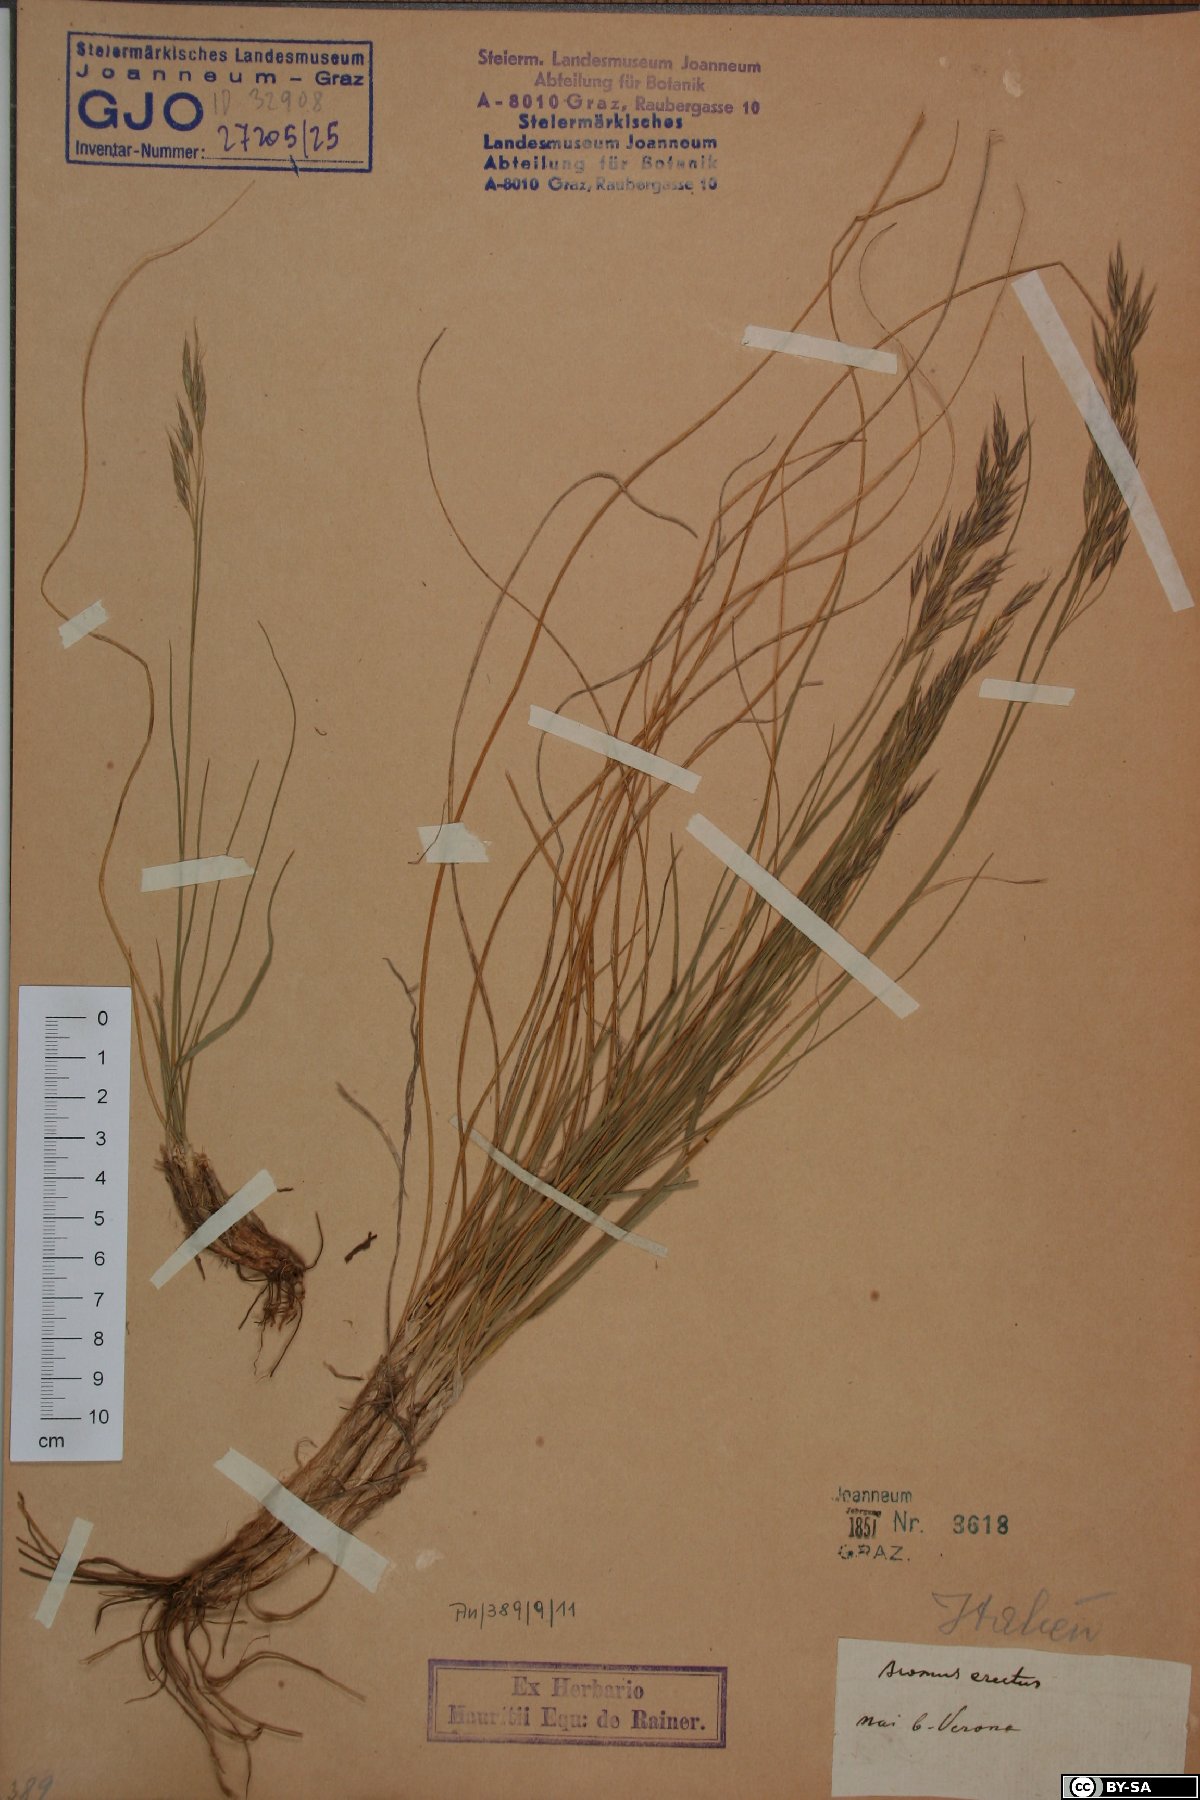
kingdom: Plantae
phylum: Tracheophyta
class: Liliopsida
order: Poales
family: Poaceae
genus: Bromus
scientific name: Bromus erectus
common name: Erect brome
